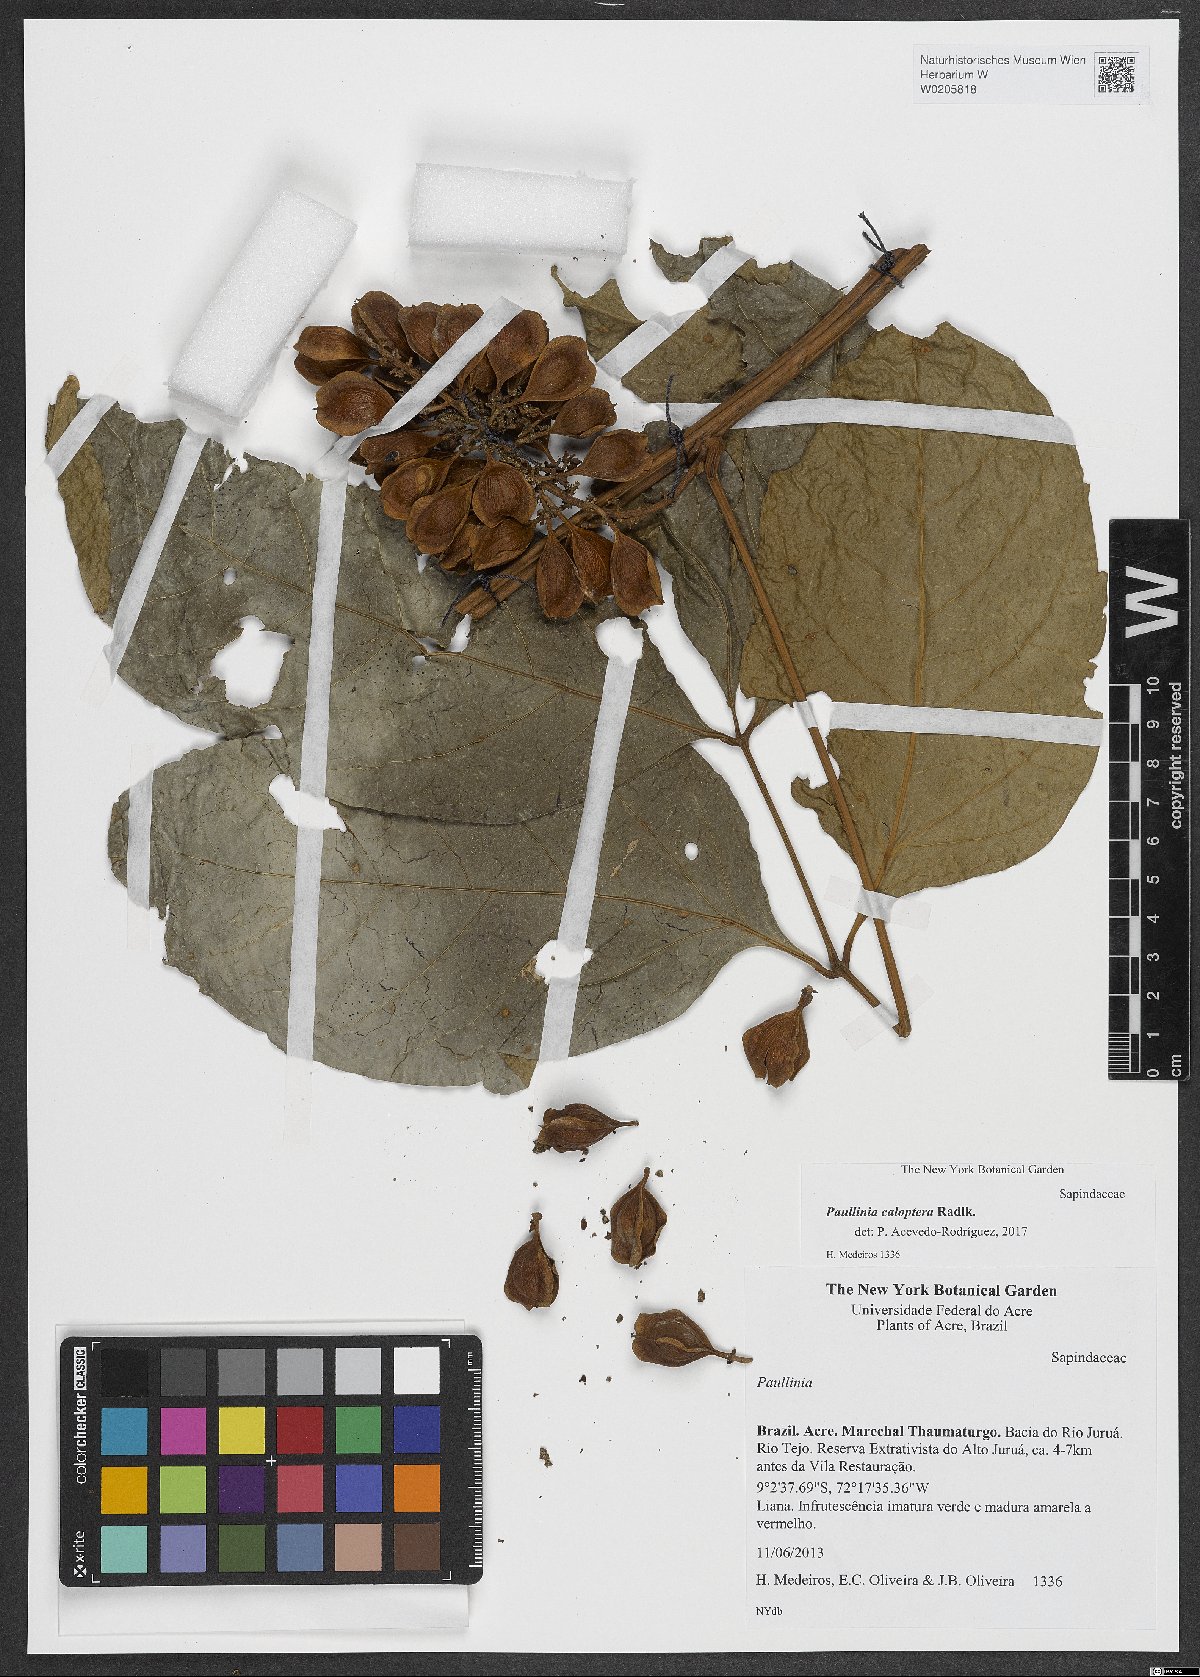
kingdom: Plantae
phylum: Tracheophyta
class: Magnoliopsida
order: Sapindales
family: Sapindaceae
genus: Paullinia
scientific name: Paullinia caloptera
